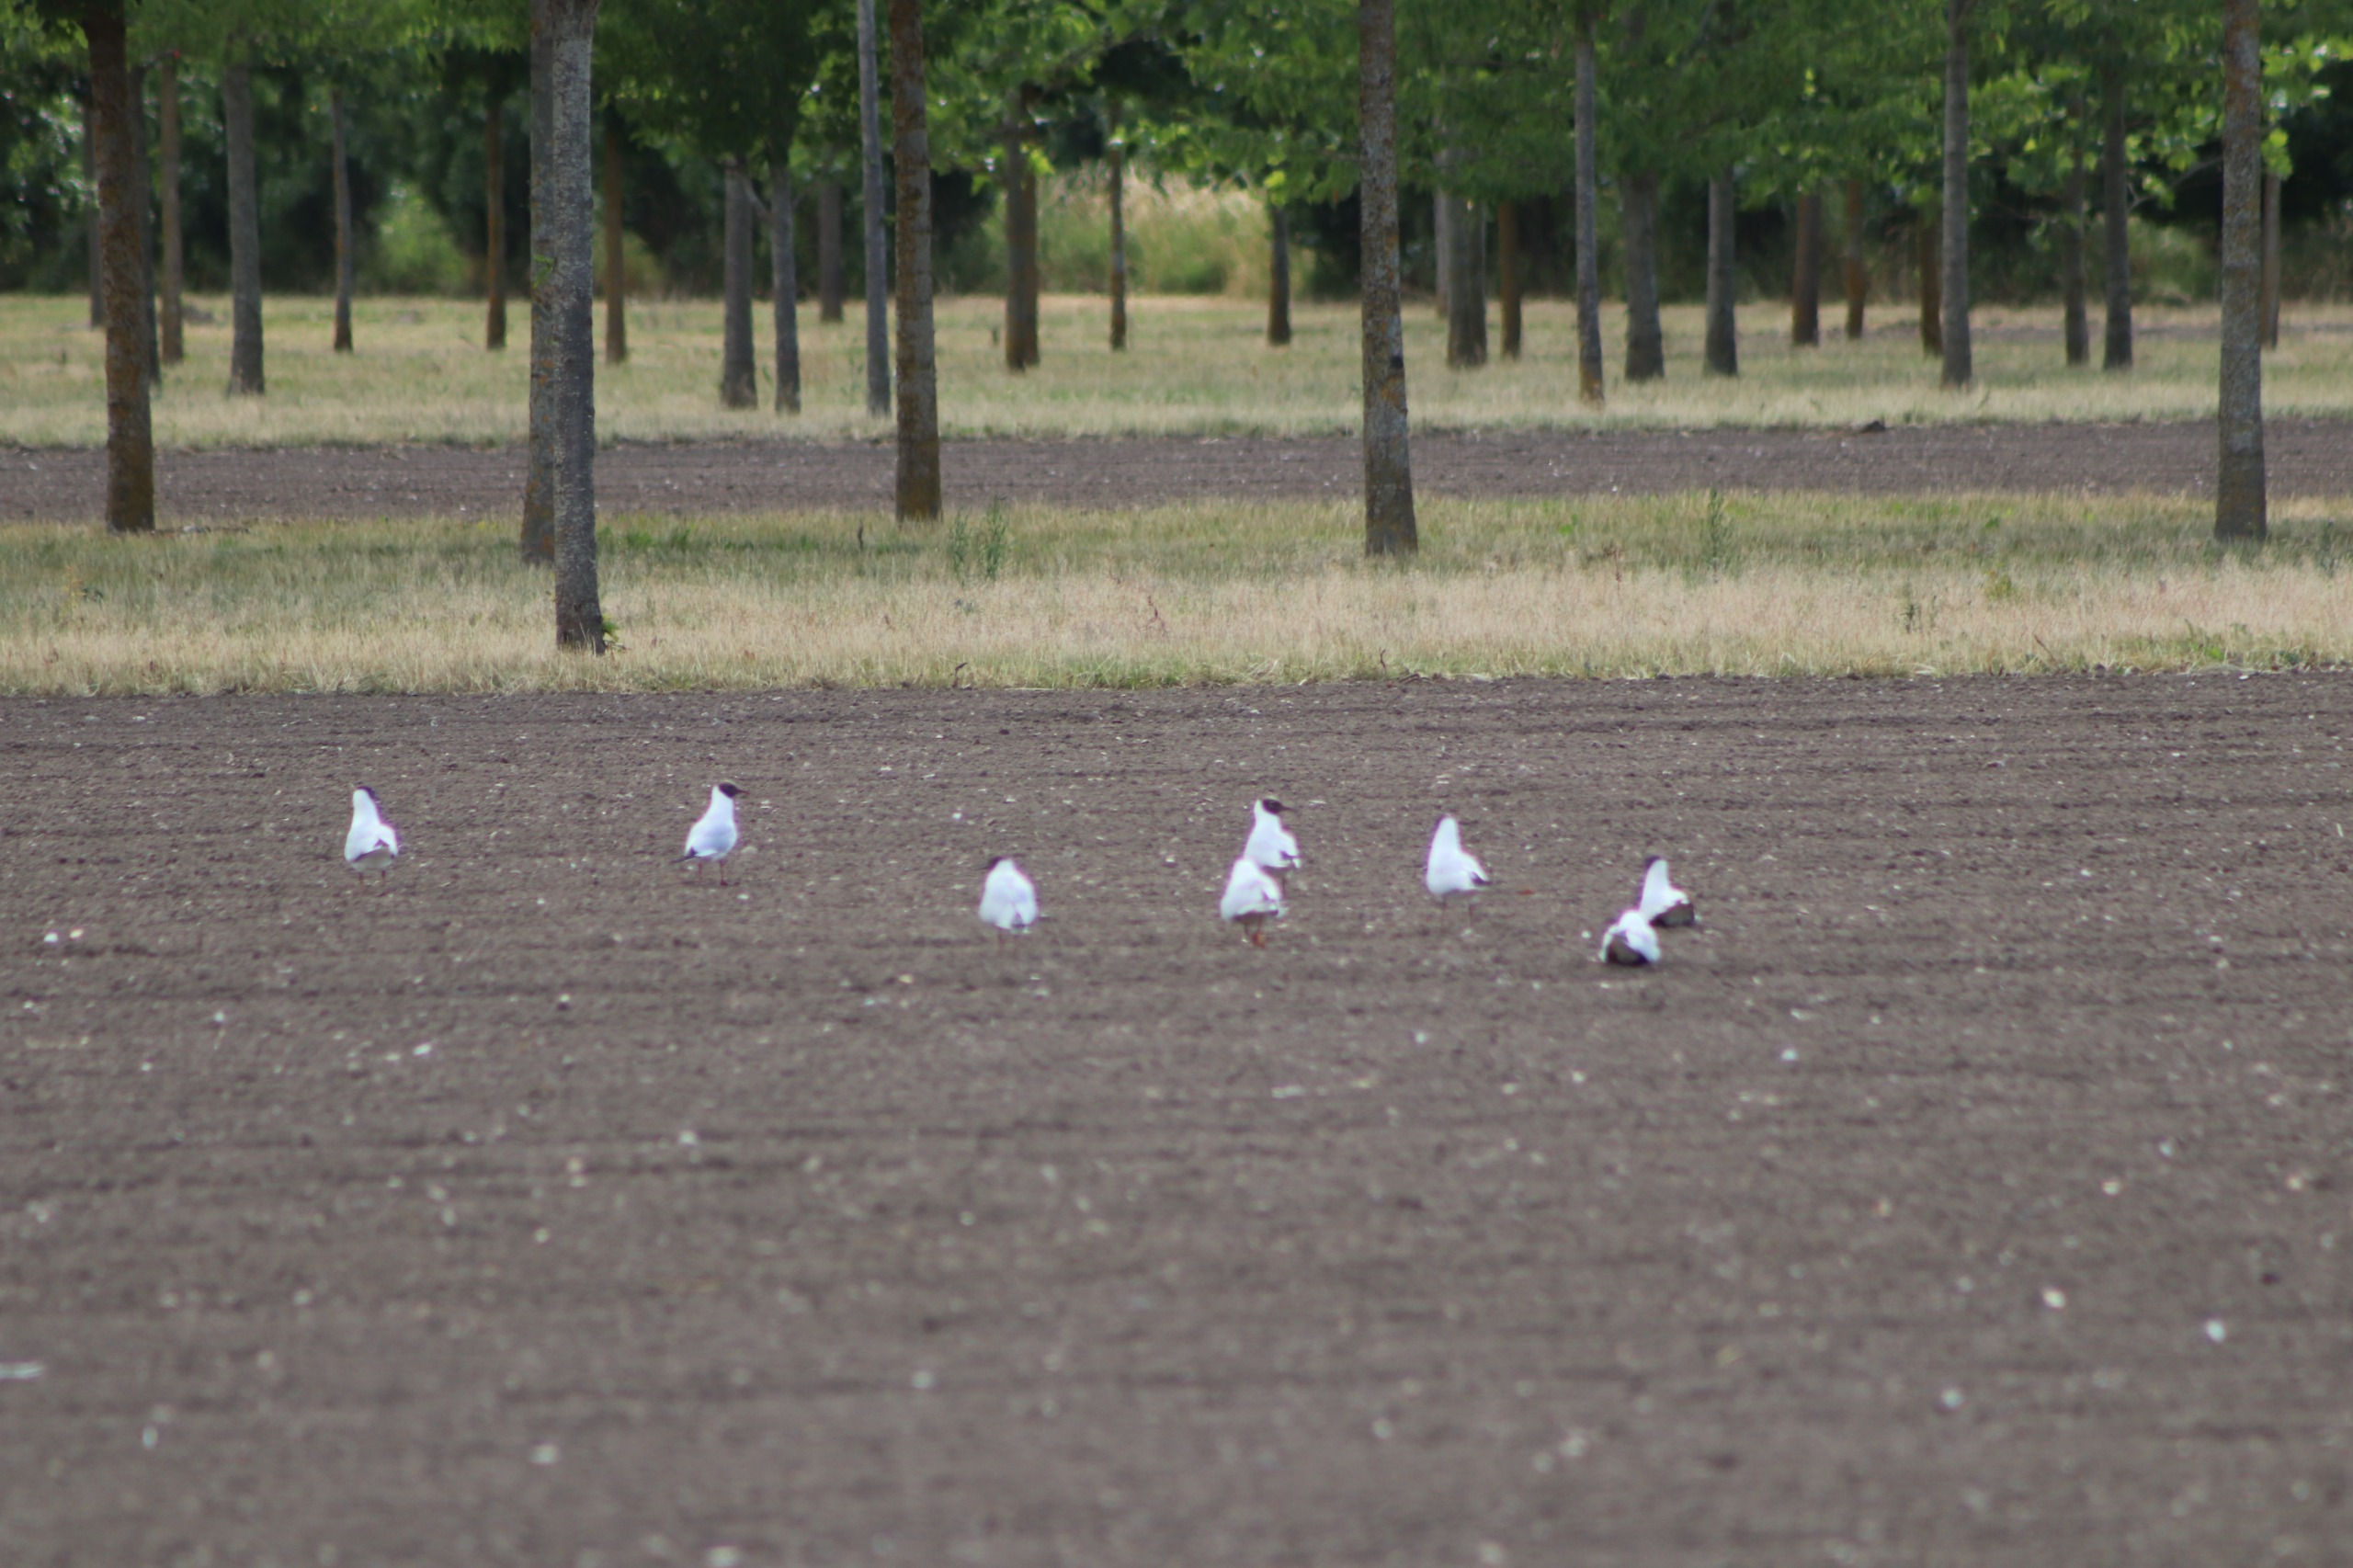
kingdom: Animalia
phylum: Chordata
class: Aves
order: Charadriiformes
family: Laridae
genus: Chroicocephalus
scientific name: Chroicocephalus ridibundus
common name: Hættemåge
